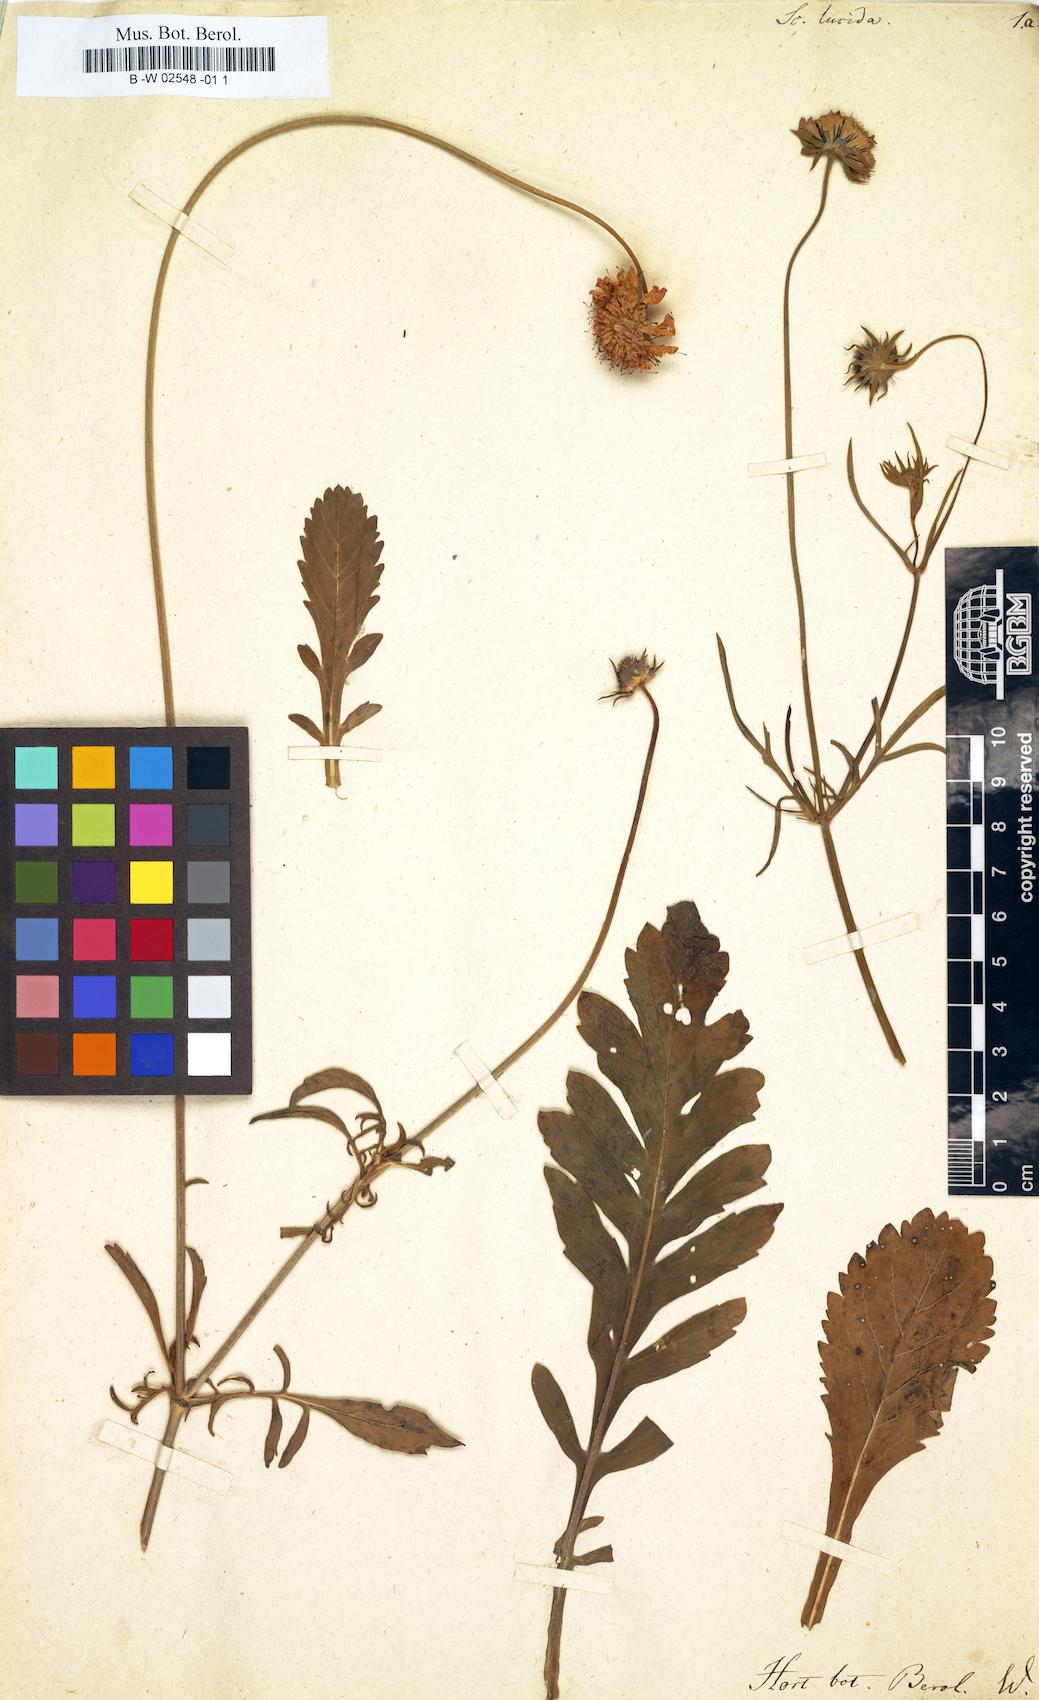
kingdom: Plantae
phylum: Tracheophyta
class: Magnoliopsida
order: Dipsacales
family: Caprifoliaceae
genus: Scabiosa
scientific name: Scabiosa lucida
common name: Shining scabious
